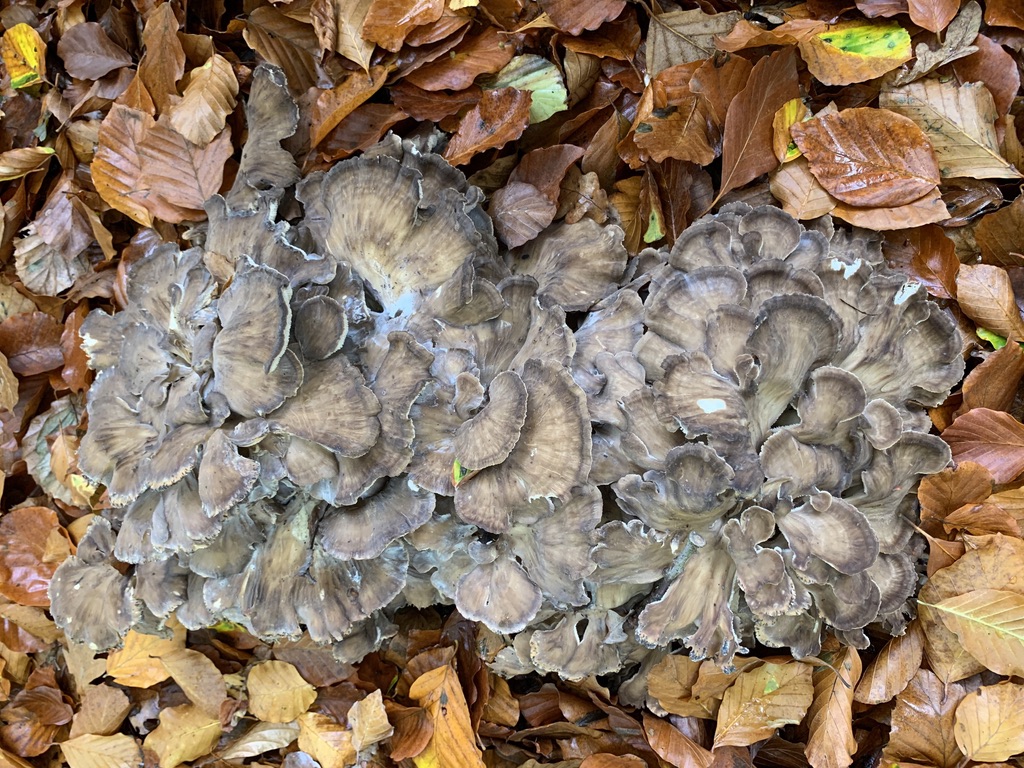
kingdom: Fungi
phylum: Basidiomycota
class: Agaricomycetes
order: Polyporales
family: Grifolaceae
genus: Grifola
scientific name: Grifola frondosa
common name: tueporesvamp
